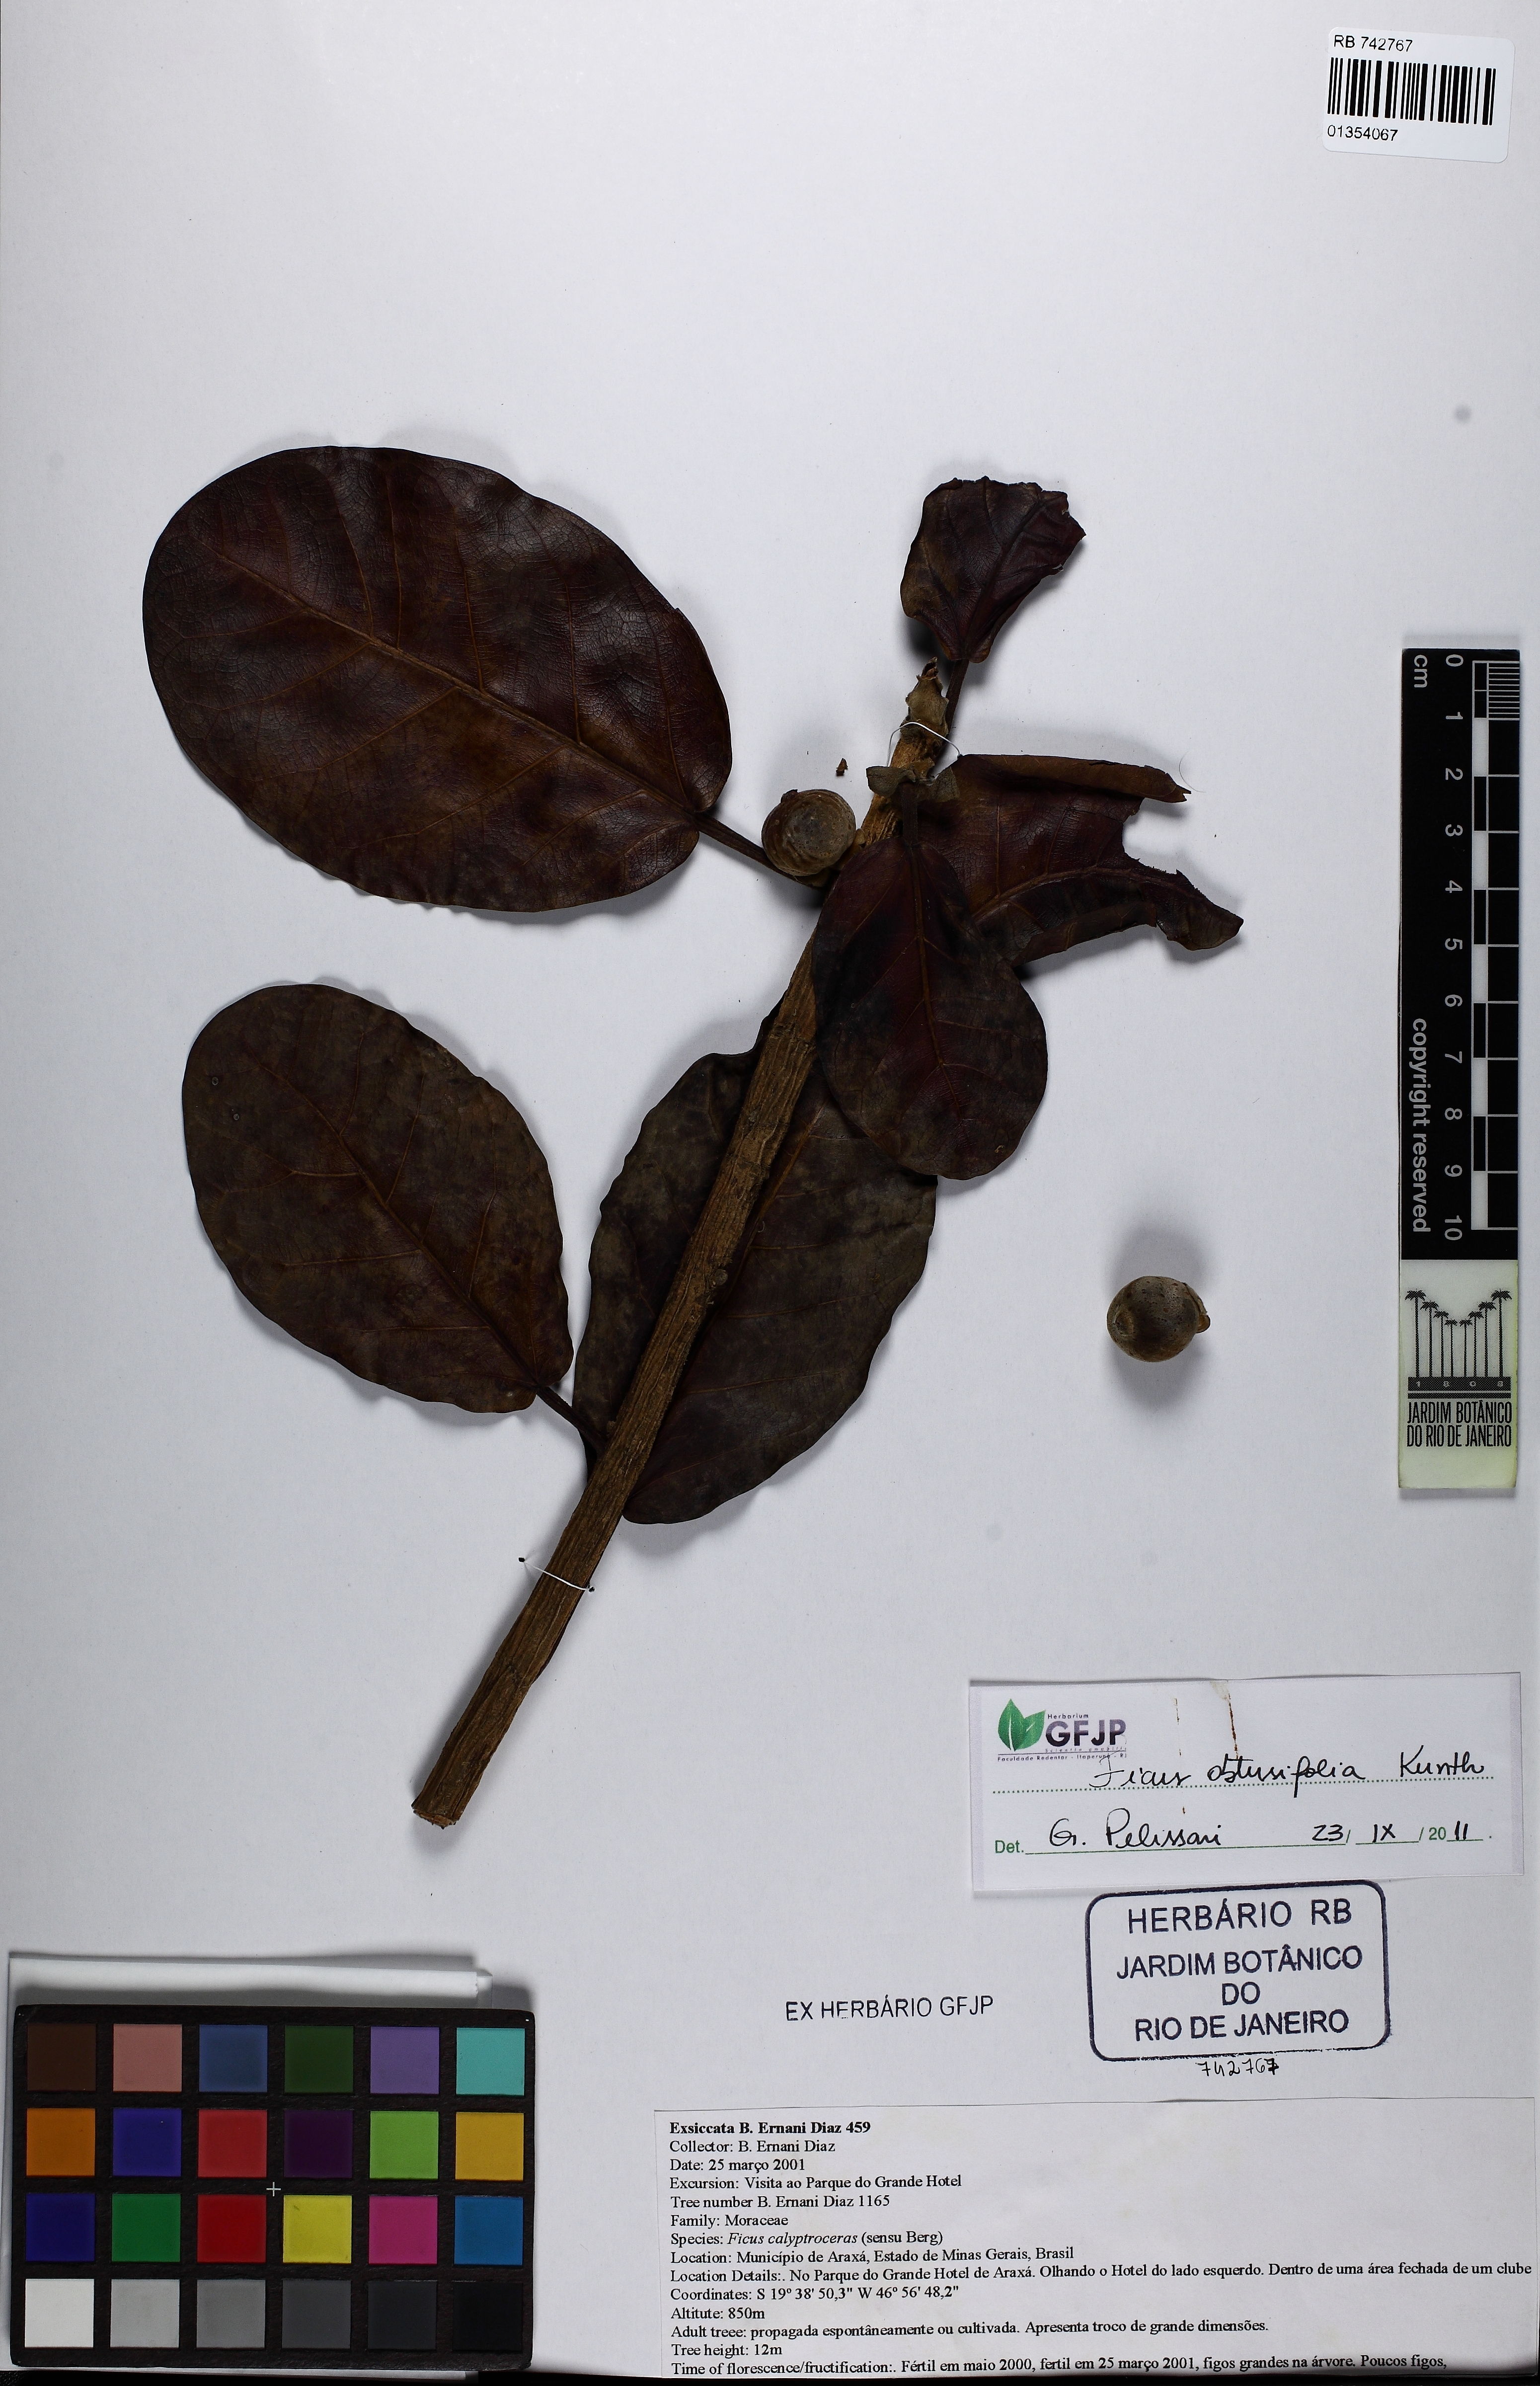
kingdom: Plantae
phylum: Tracheophyta
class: Magnoliopsida
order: Rosales
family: Moraceae
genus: Ficus
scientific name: Ficus obtusifolia
